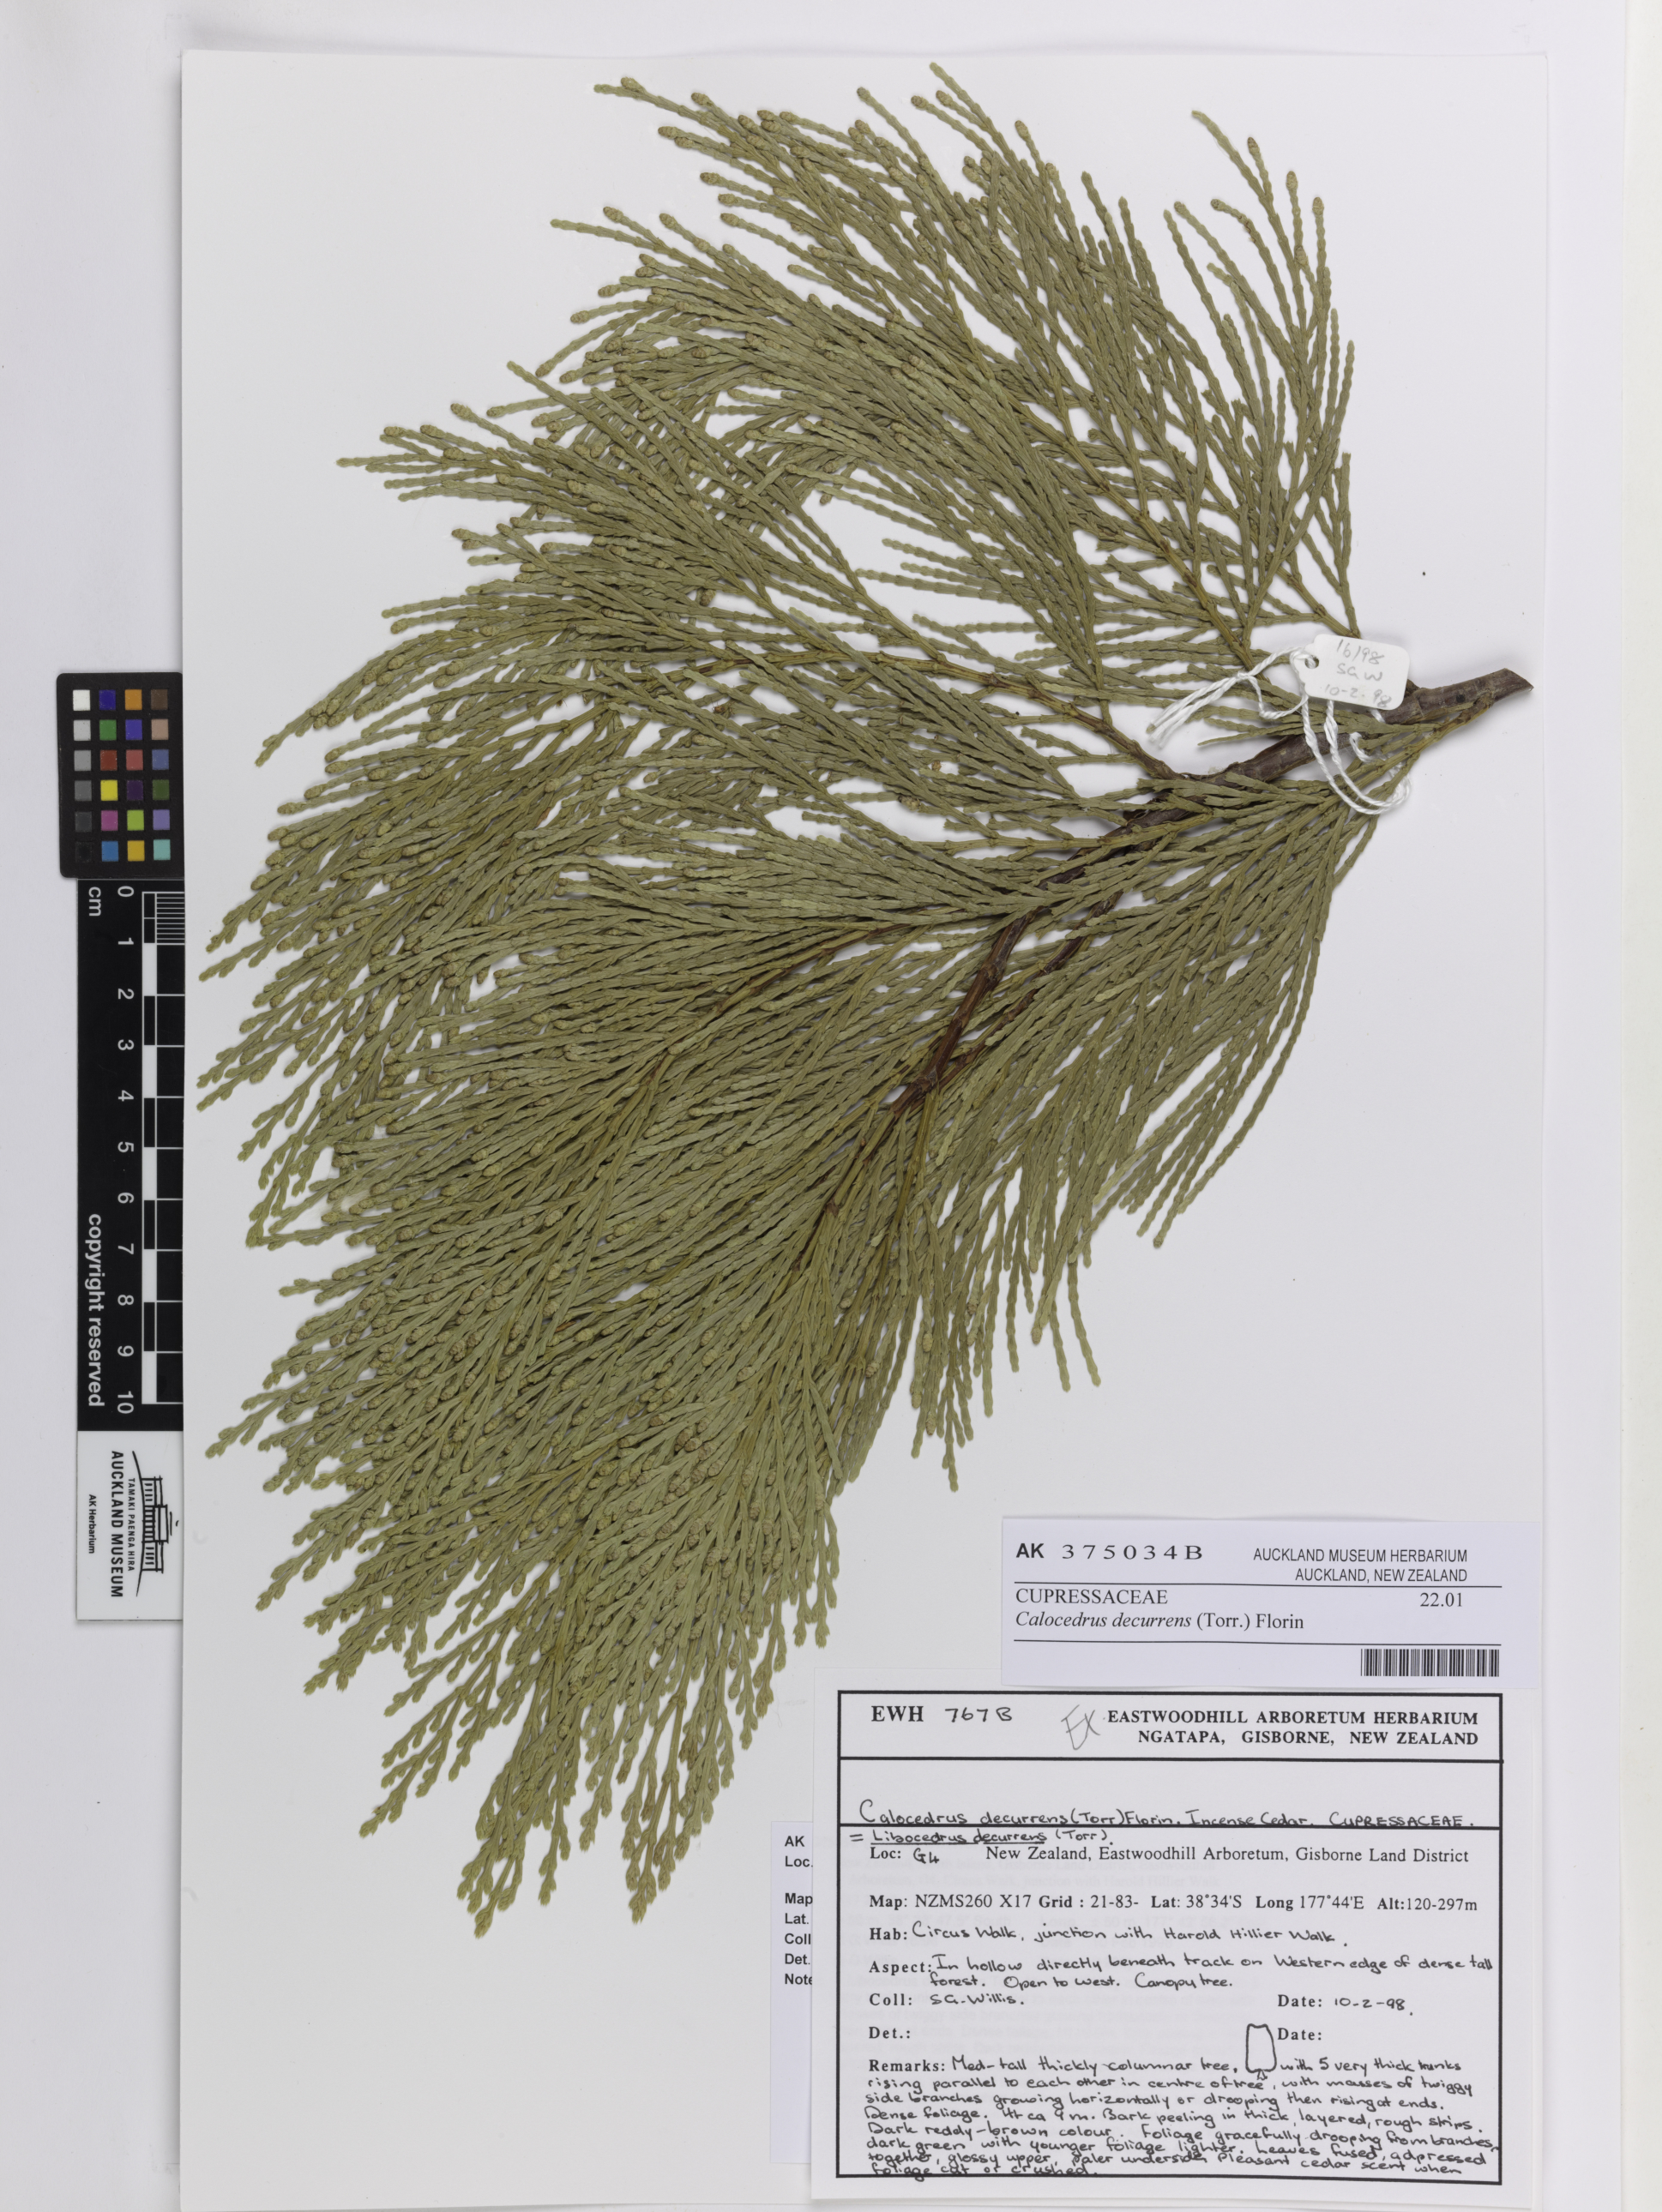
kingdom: Plantae
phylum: Tracheophyta
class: Pinopsida
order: Pinales
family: Cupressaceae
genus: Calocedrus
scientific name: Calocedrus decurrens
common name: Californian incense-cedar
